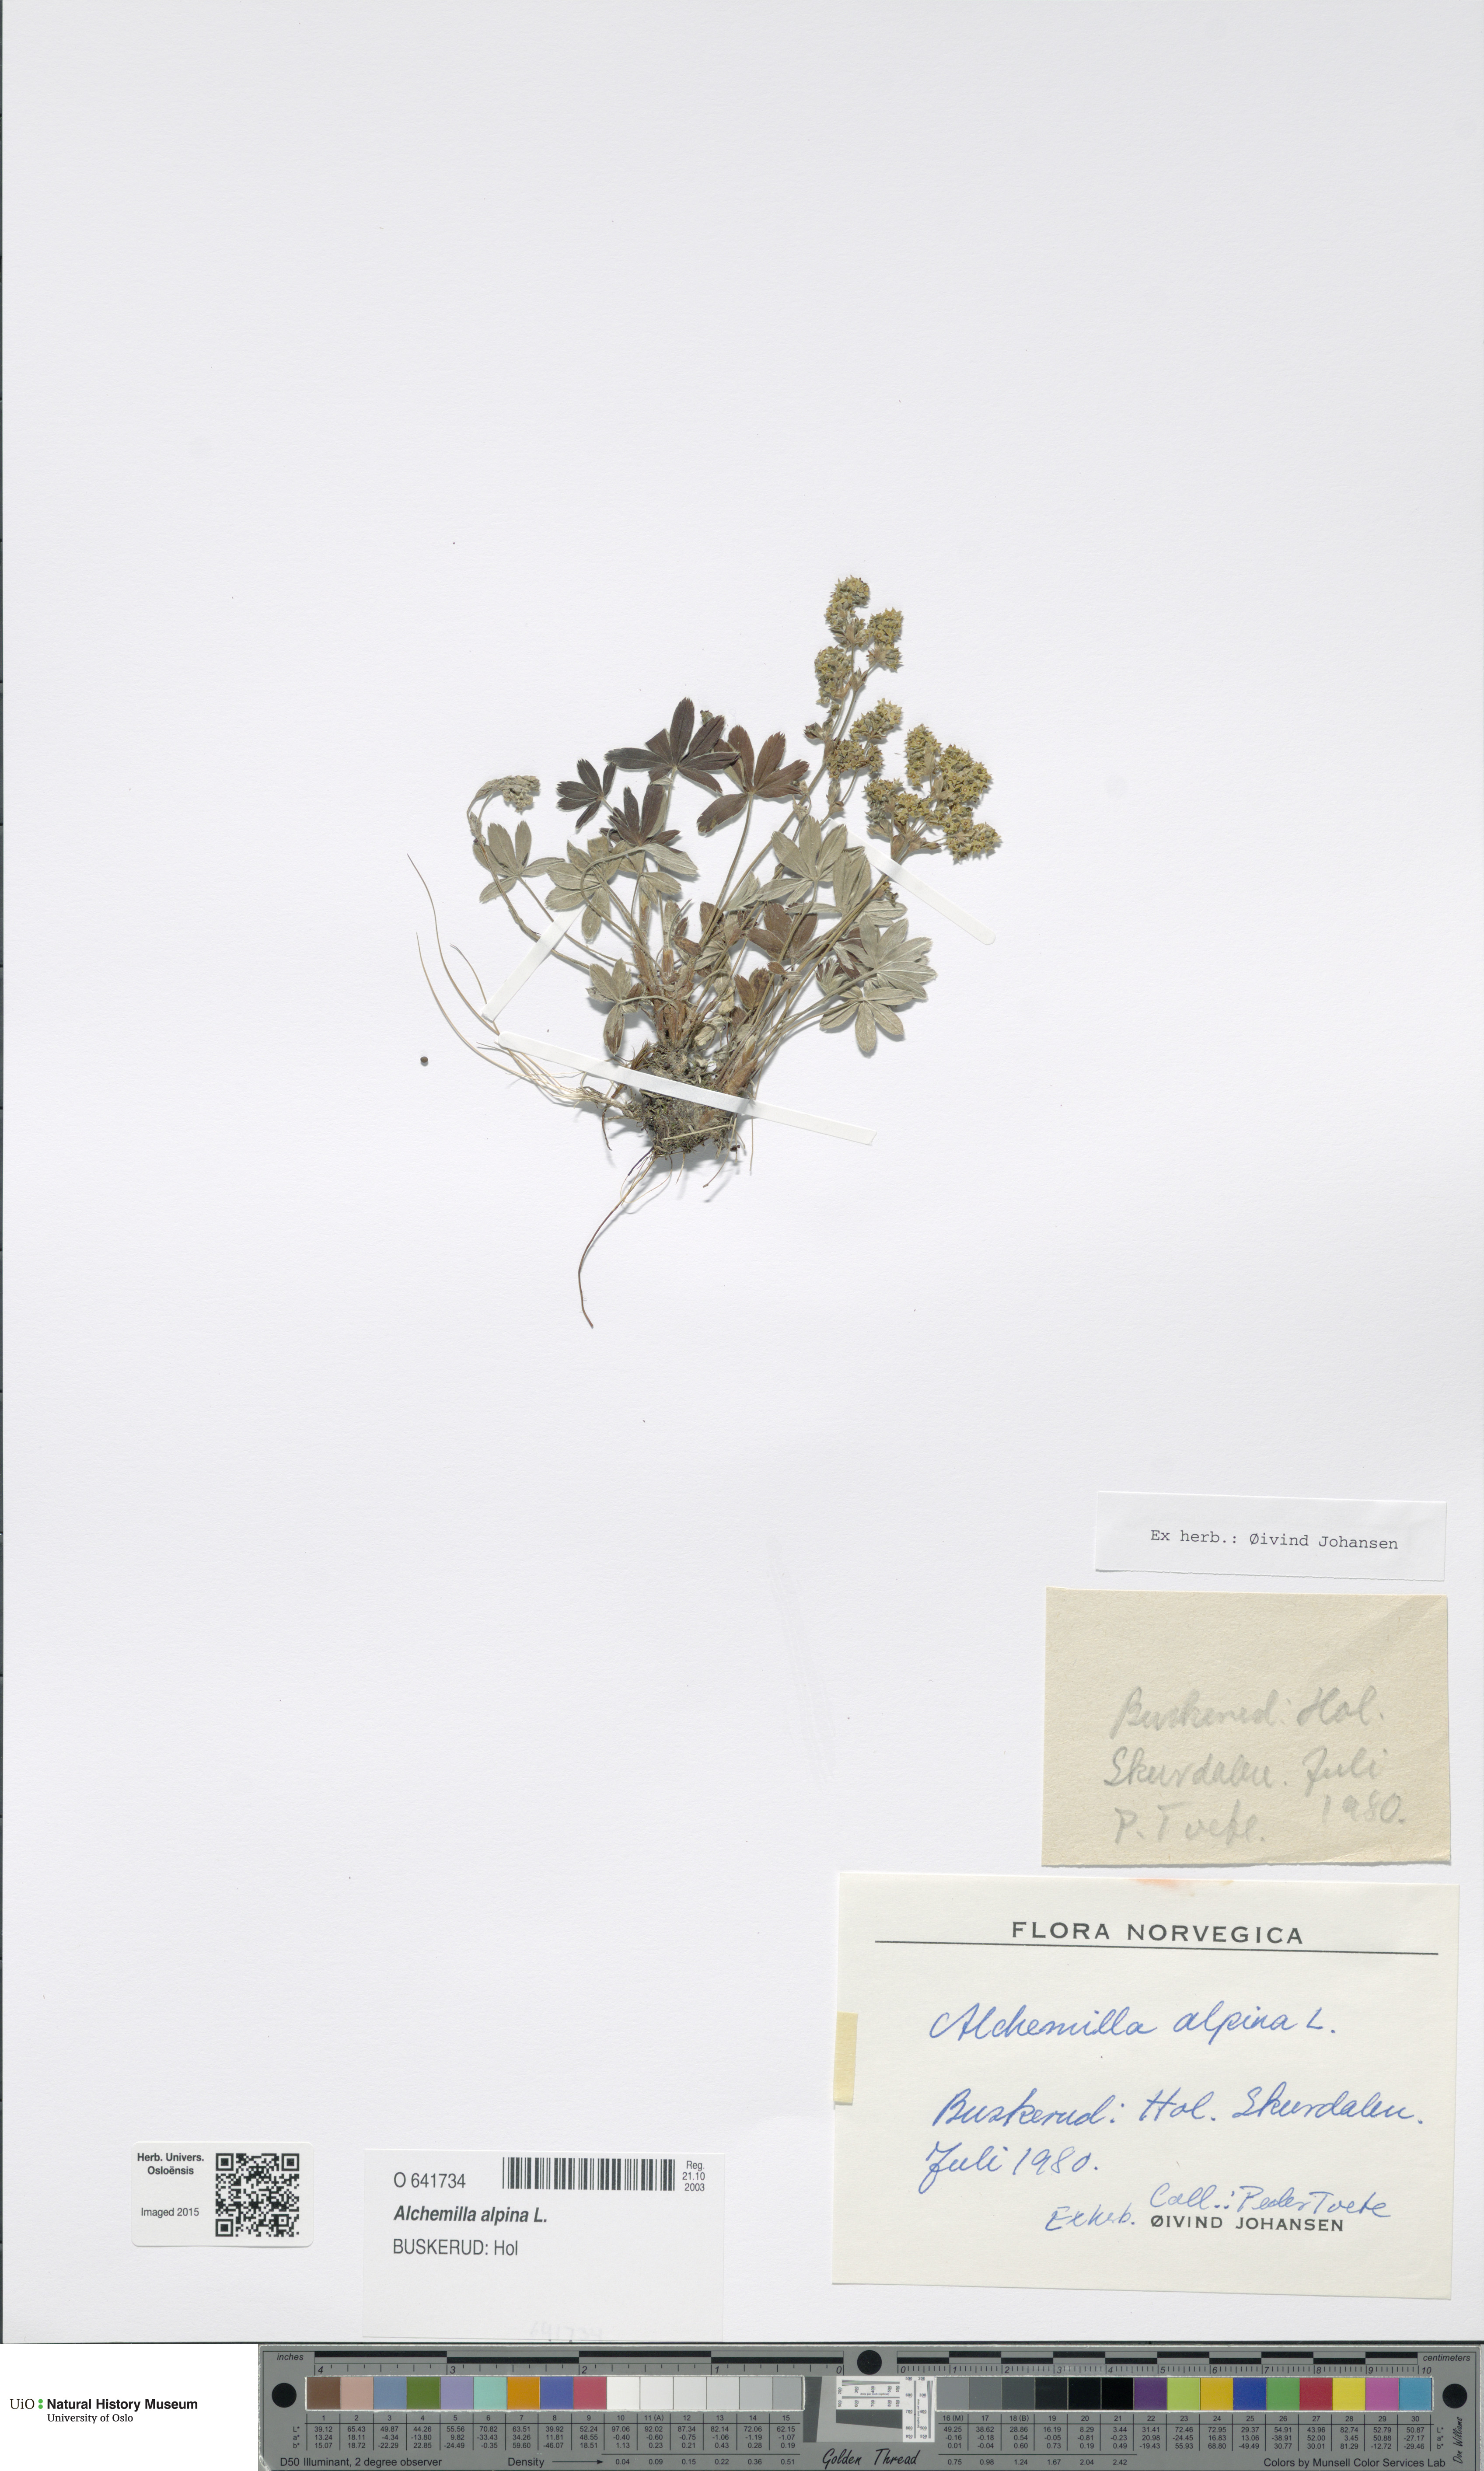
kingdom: Plantae
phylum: Tracheophyta
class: Magnoliopsida
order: Rosales
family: Rosaceae
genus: Alchemilla
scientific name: Alchemilla alpina
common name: Alpine lady's-mantle
